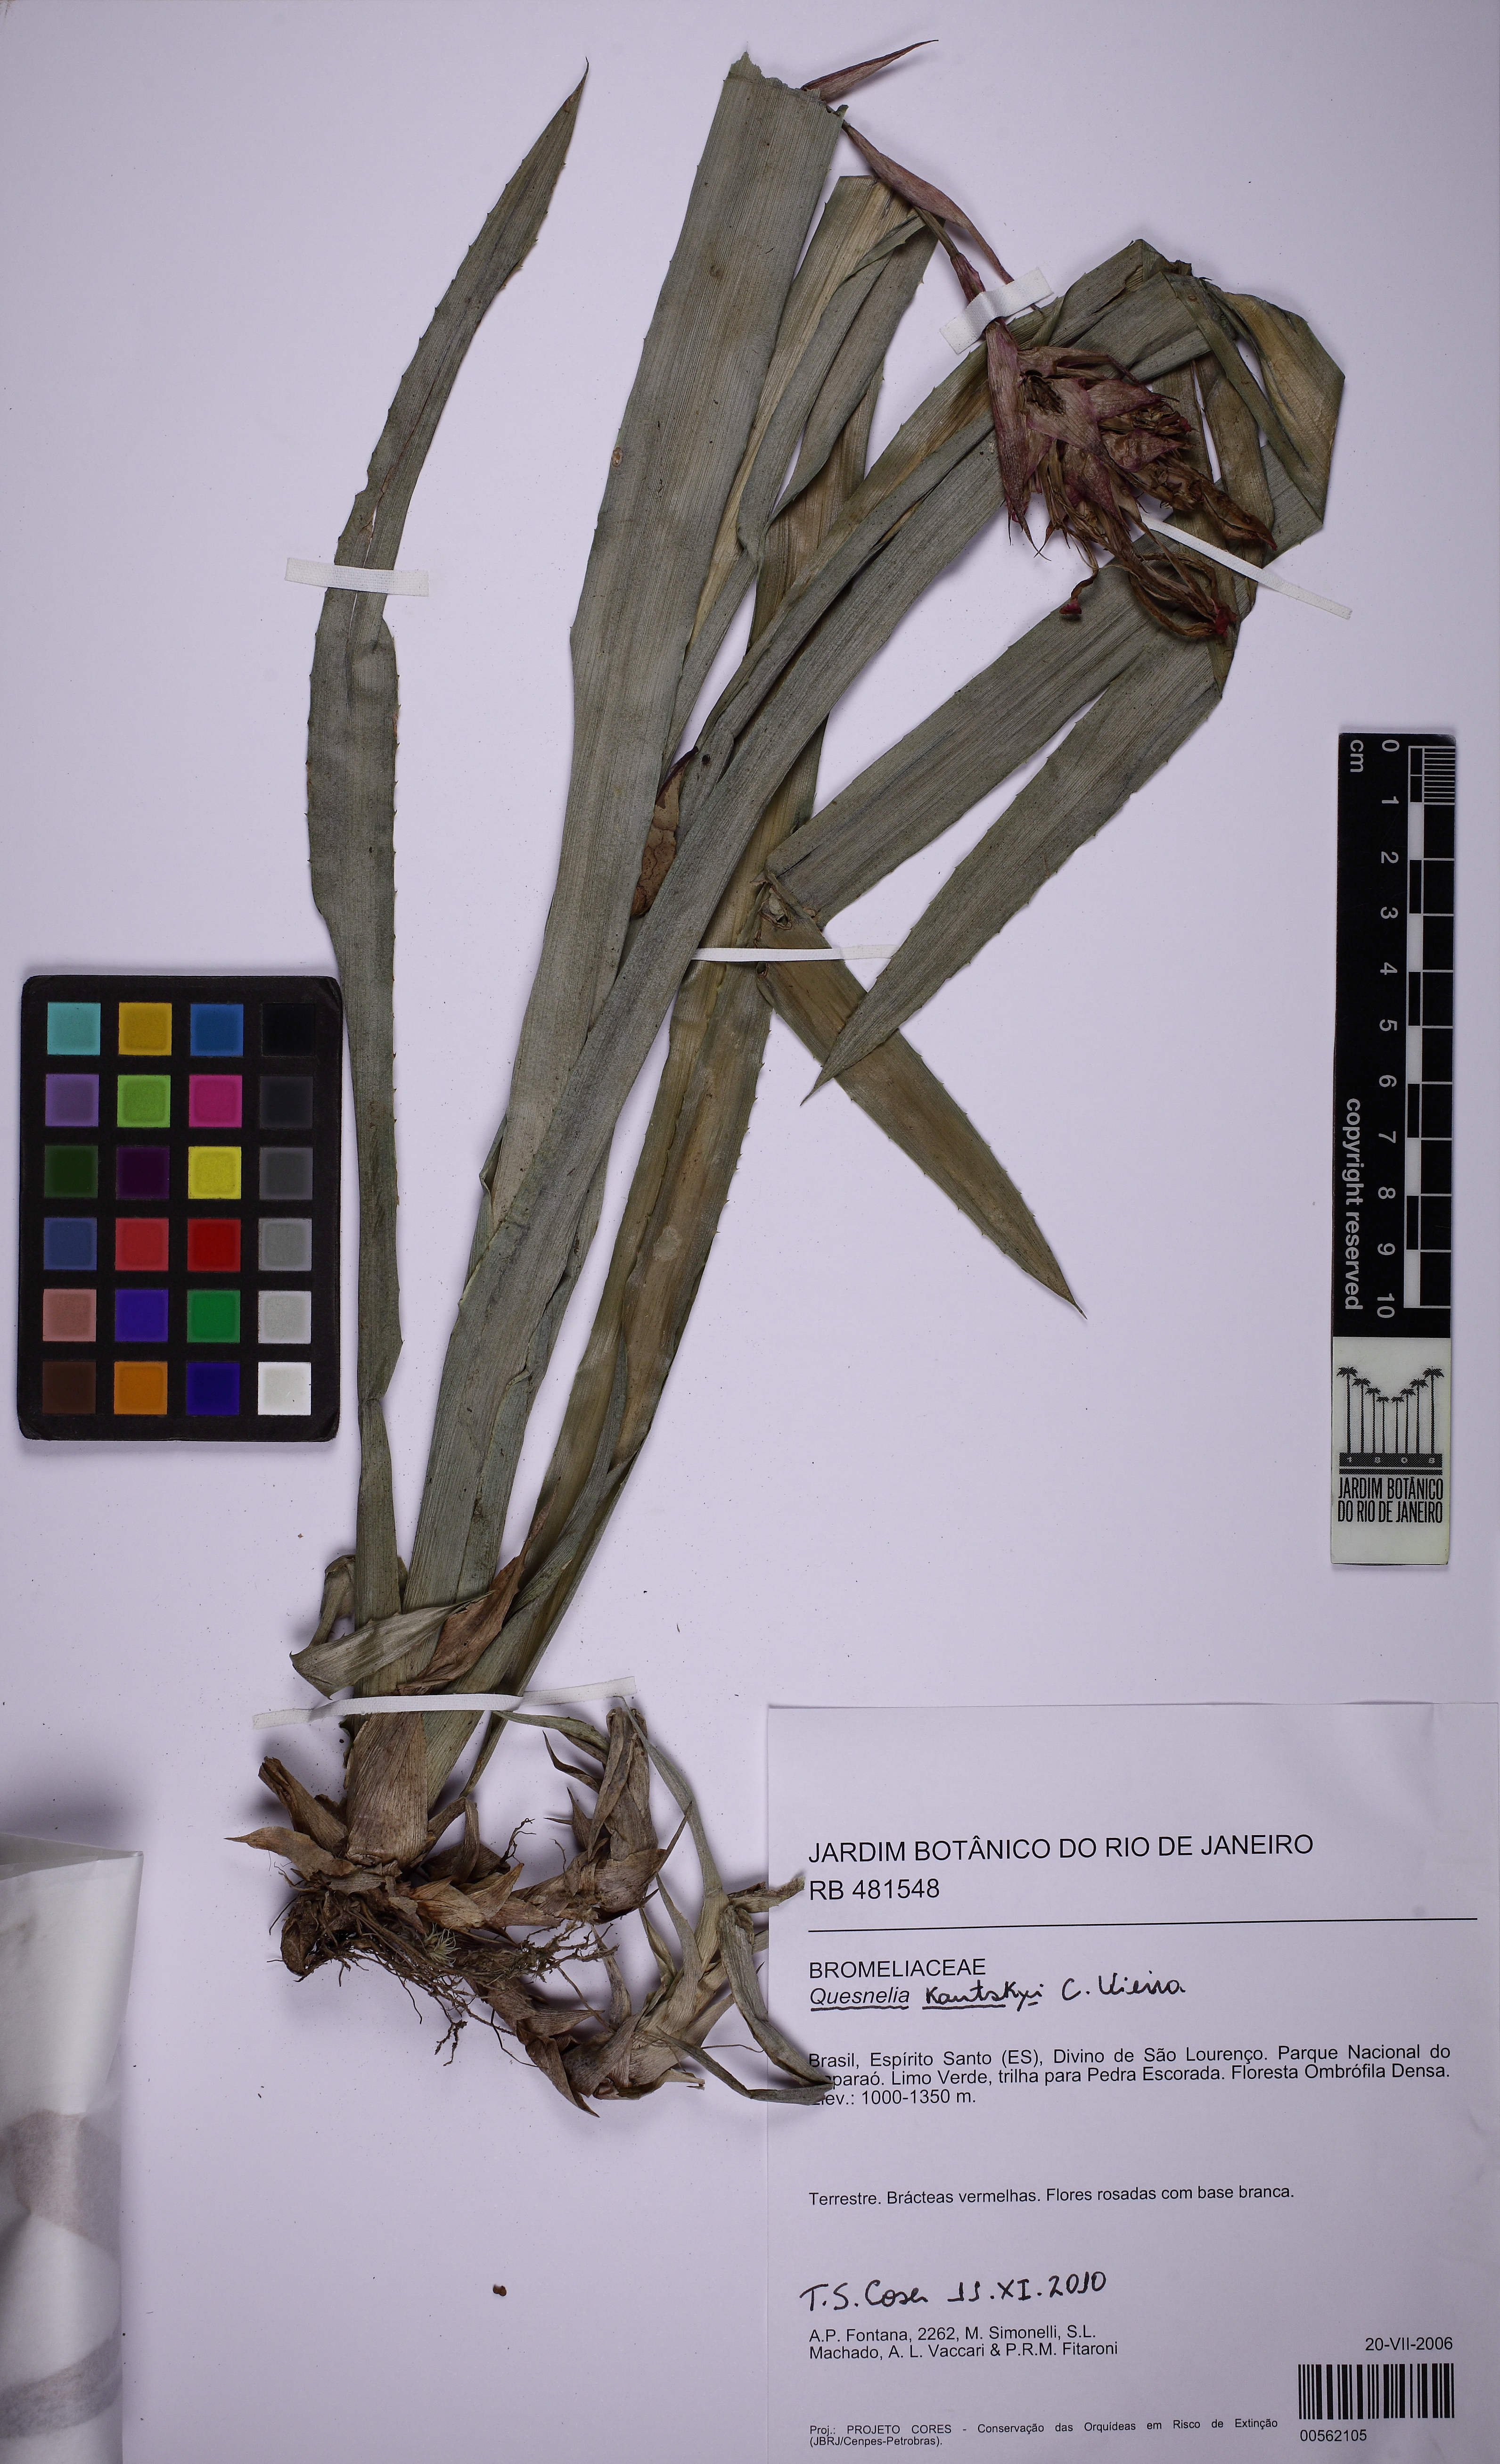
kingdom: Plantae
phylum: Tracheophyta
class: Liliopsida
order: Poales
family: Bromeliaceae
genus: Quesnelia
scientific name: Quesnelia kautskyi
